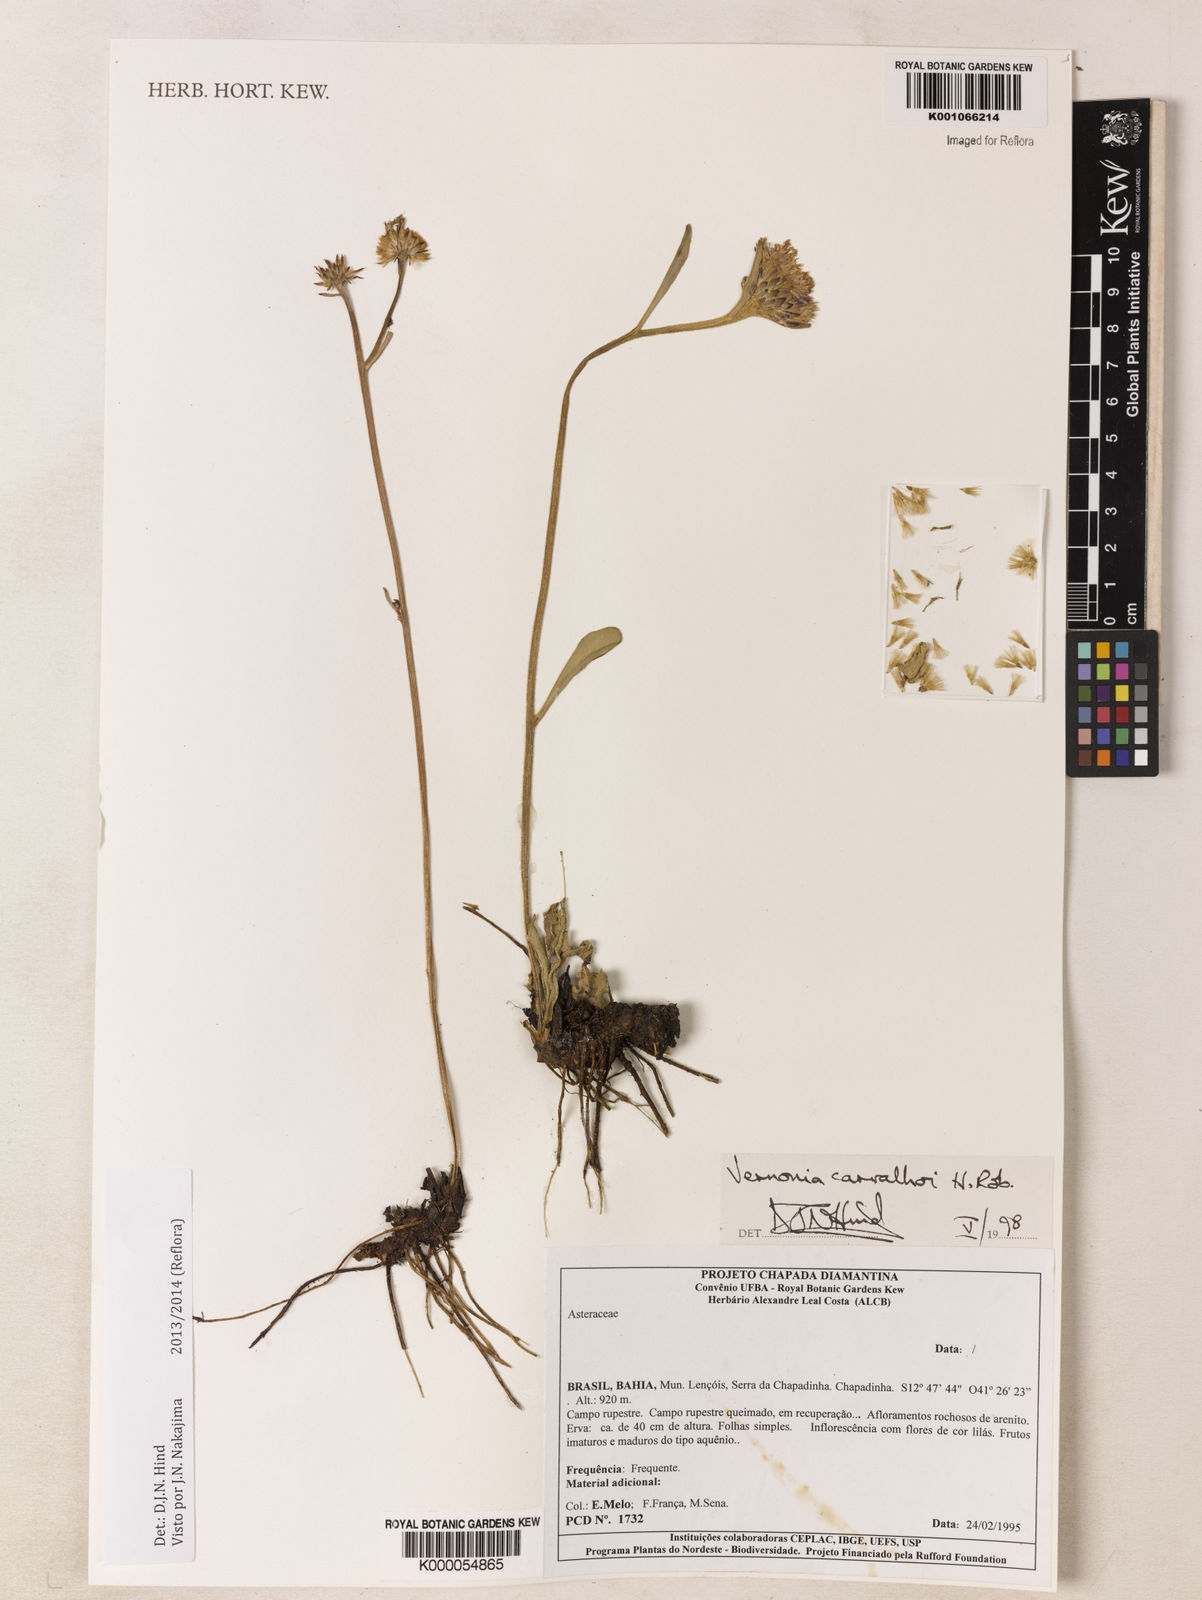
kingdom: Plantae
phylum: Tracheophyta
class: Magnoliopsida
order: Asterales
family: Asteraceae
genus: Lessingianthus
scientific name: Lessingianthus carvalhoi
